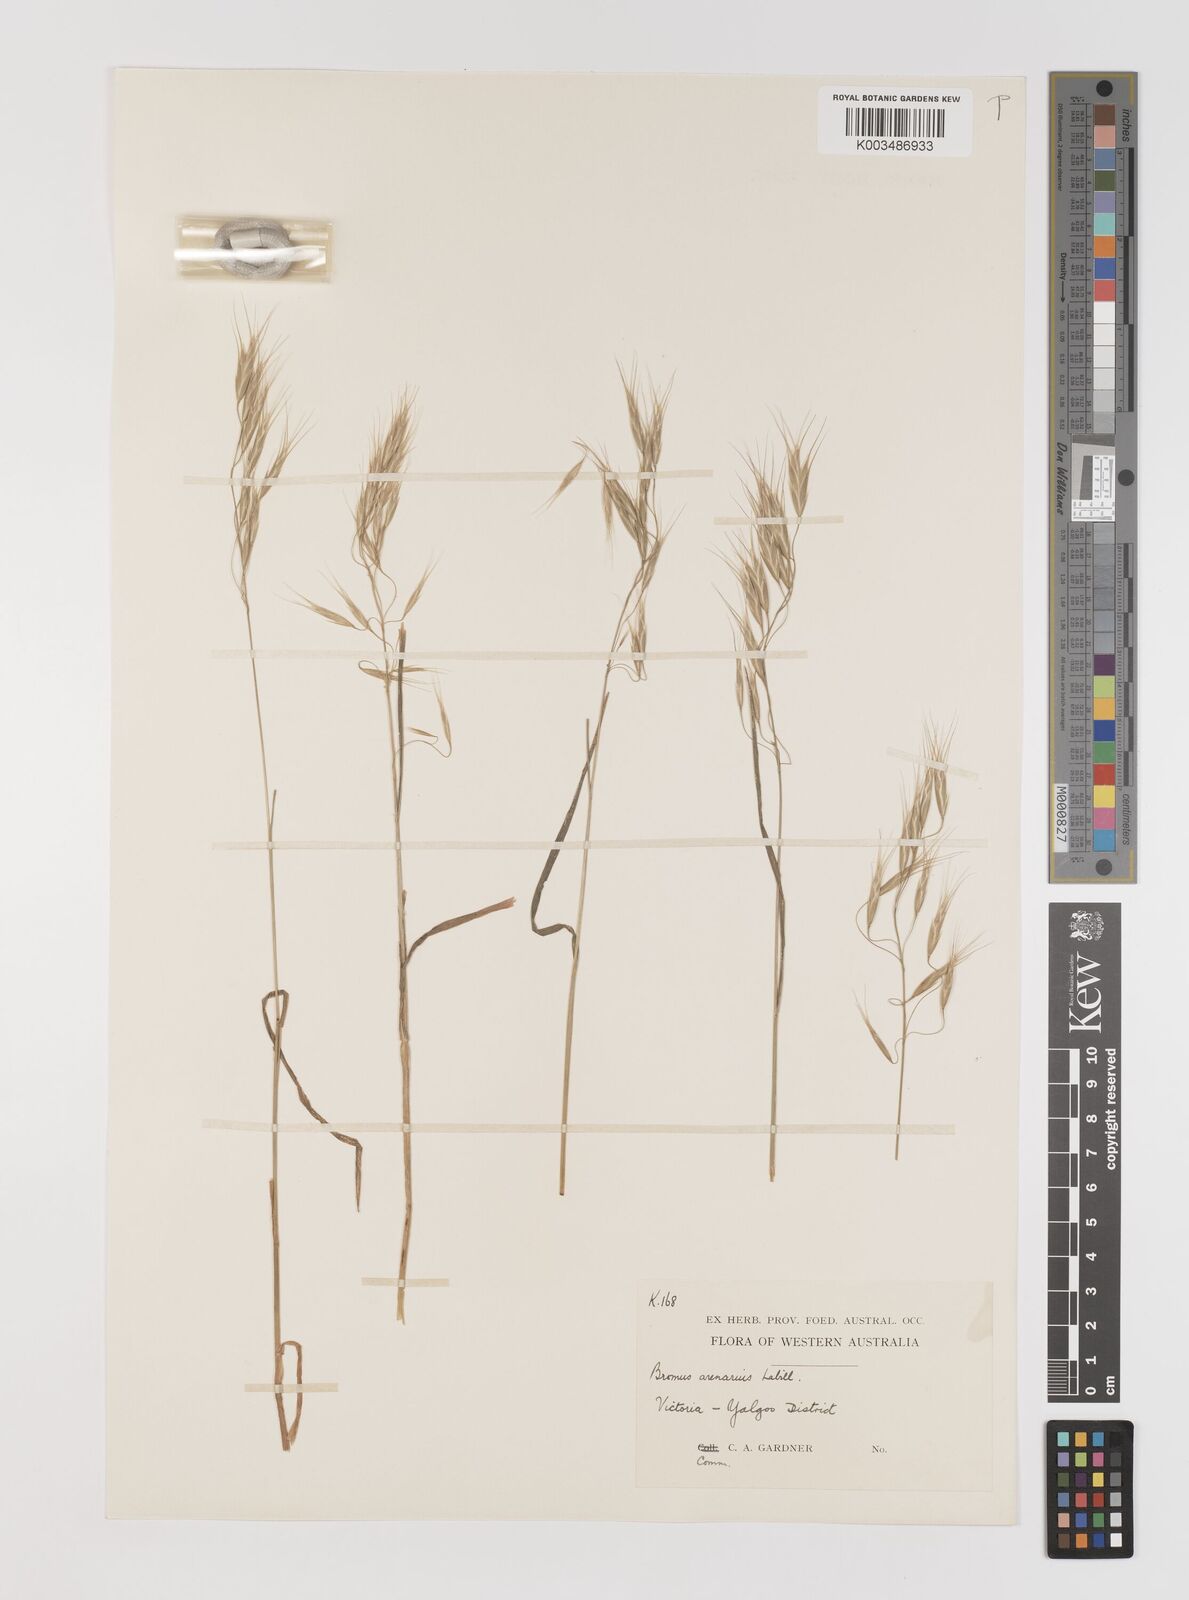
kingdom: Plantae
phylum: Tracheophyta
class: Liliopsida
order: Poales
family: Poaceae
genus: Bromus
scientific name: Bromus arenarius
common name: Australian brome
